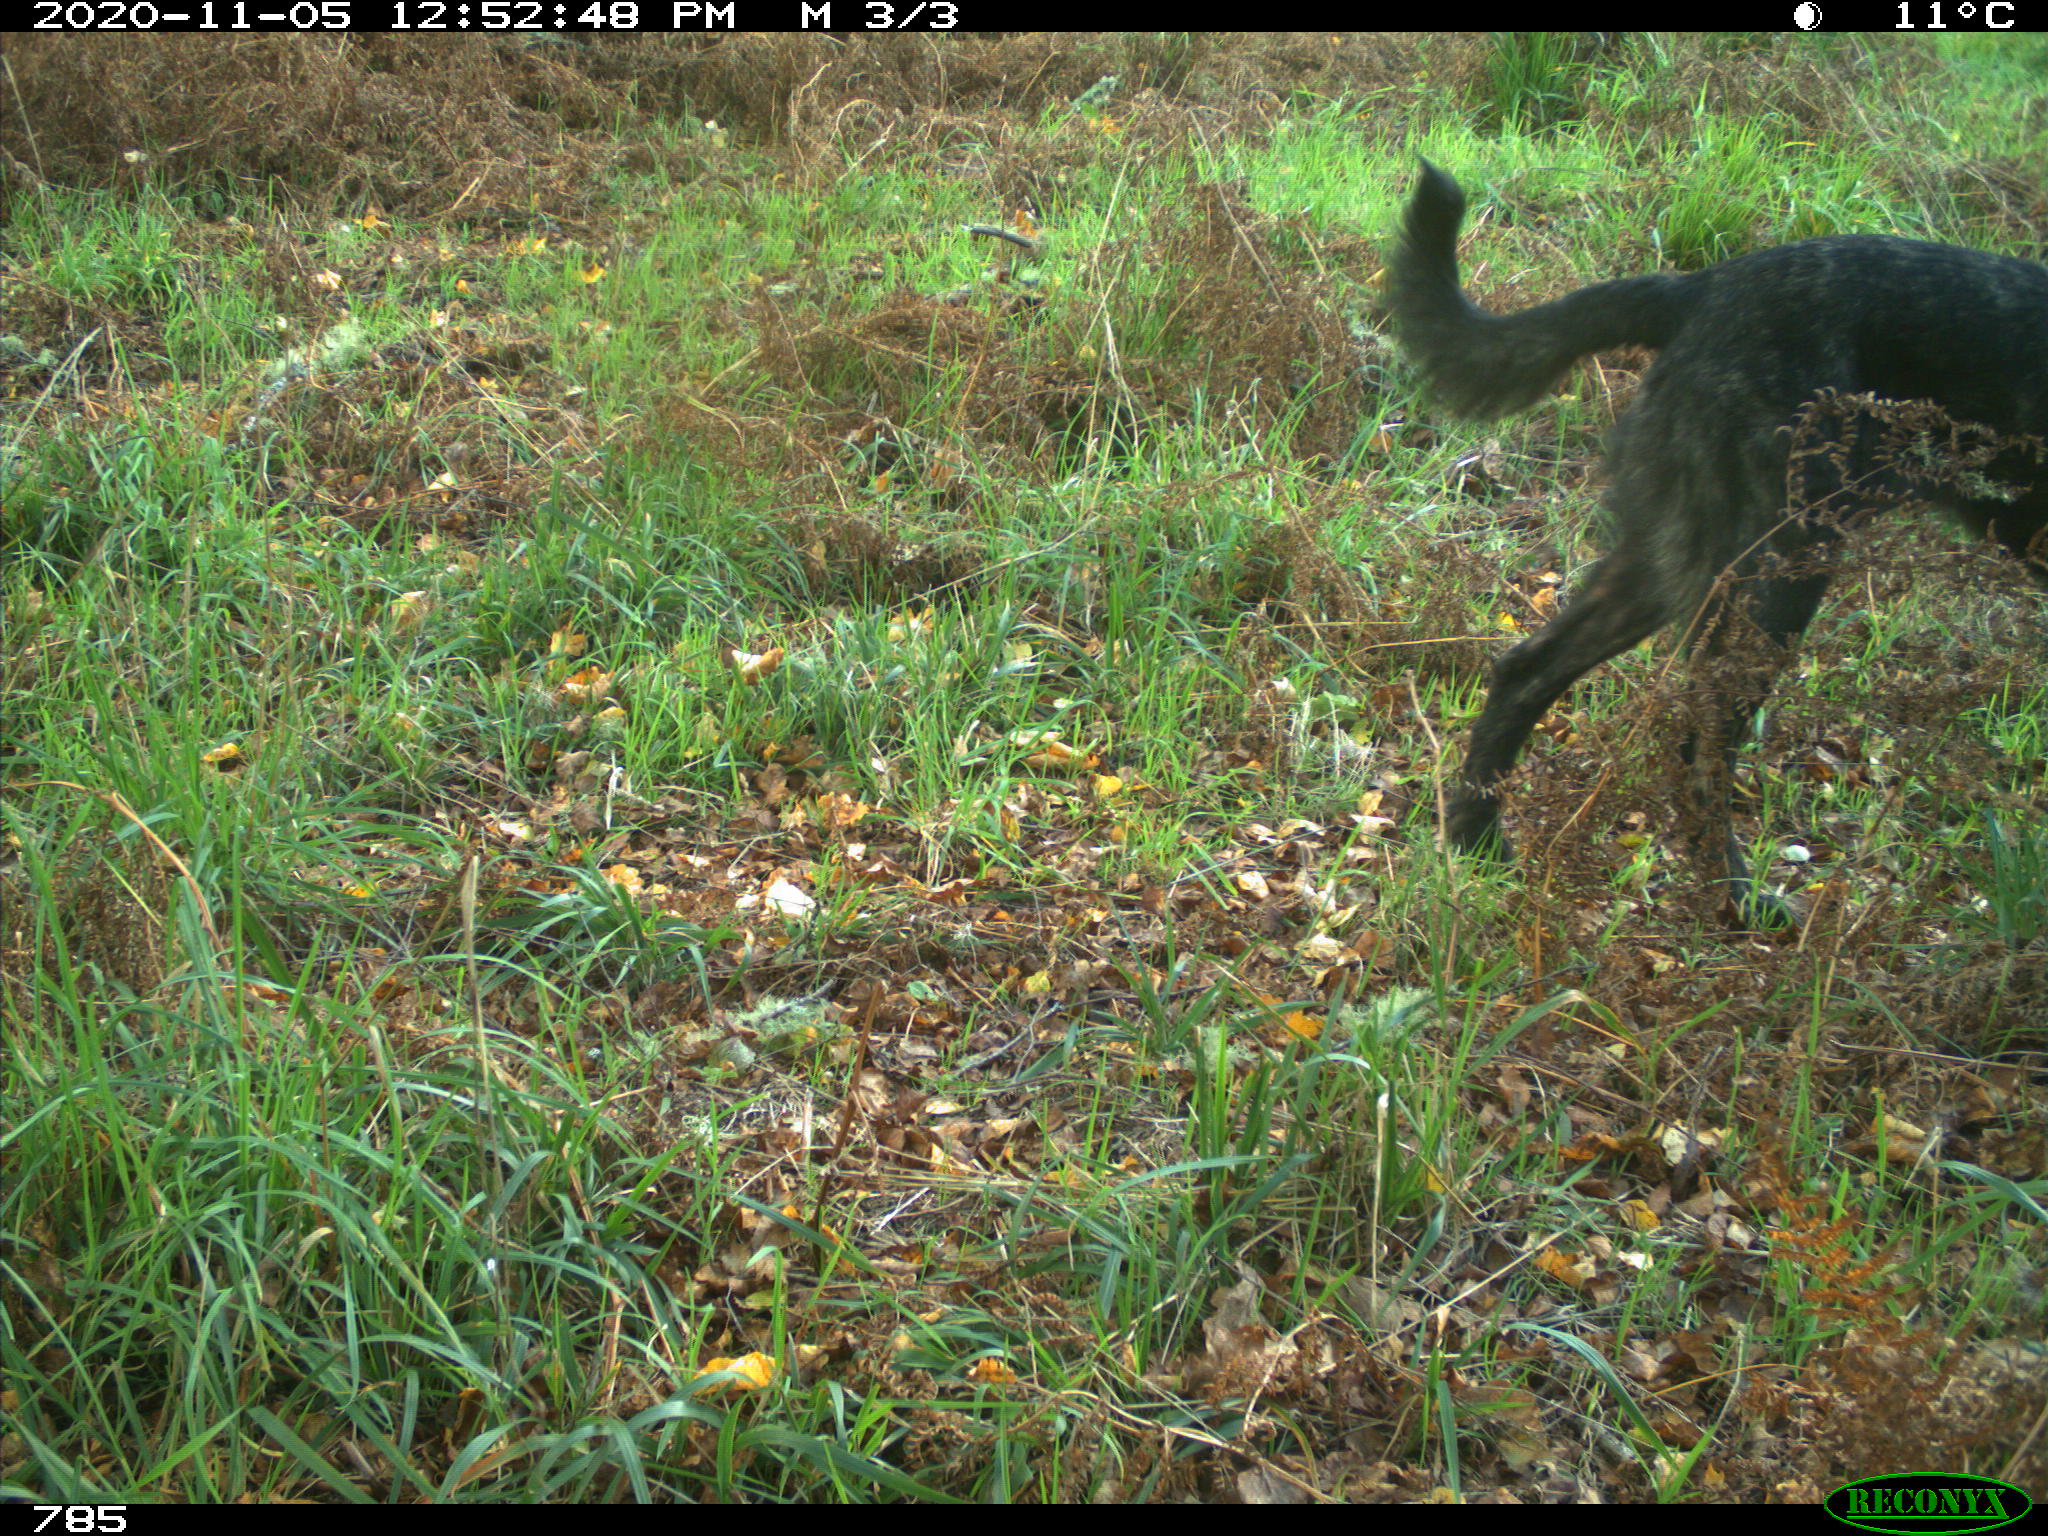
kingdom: Animalia
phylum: Chordata
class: Mammalia
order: Carnivora
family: Canidae
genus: Canis
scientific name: Canis lupus
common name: Gray wolf
